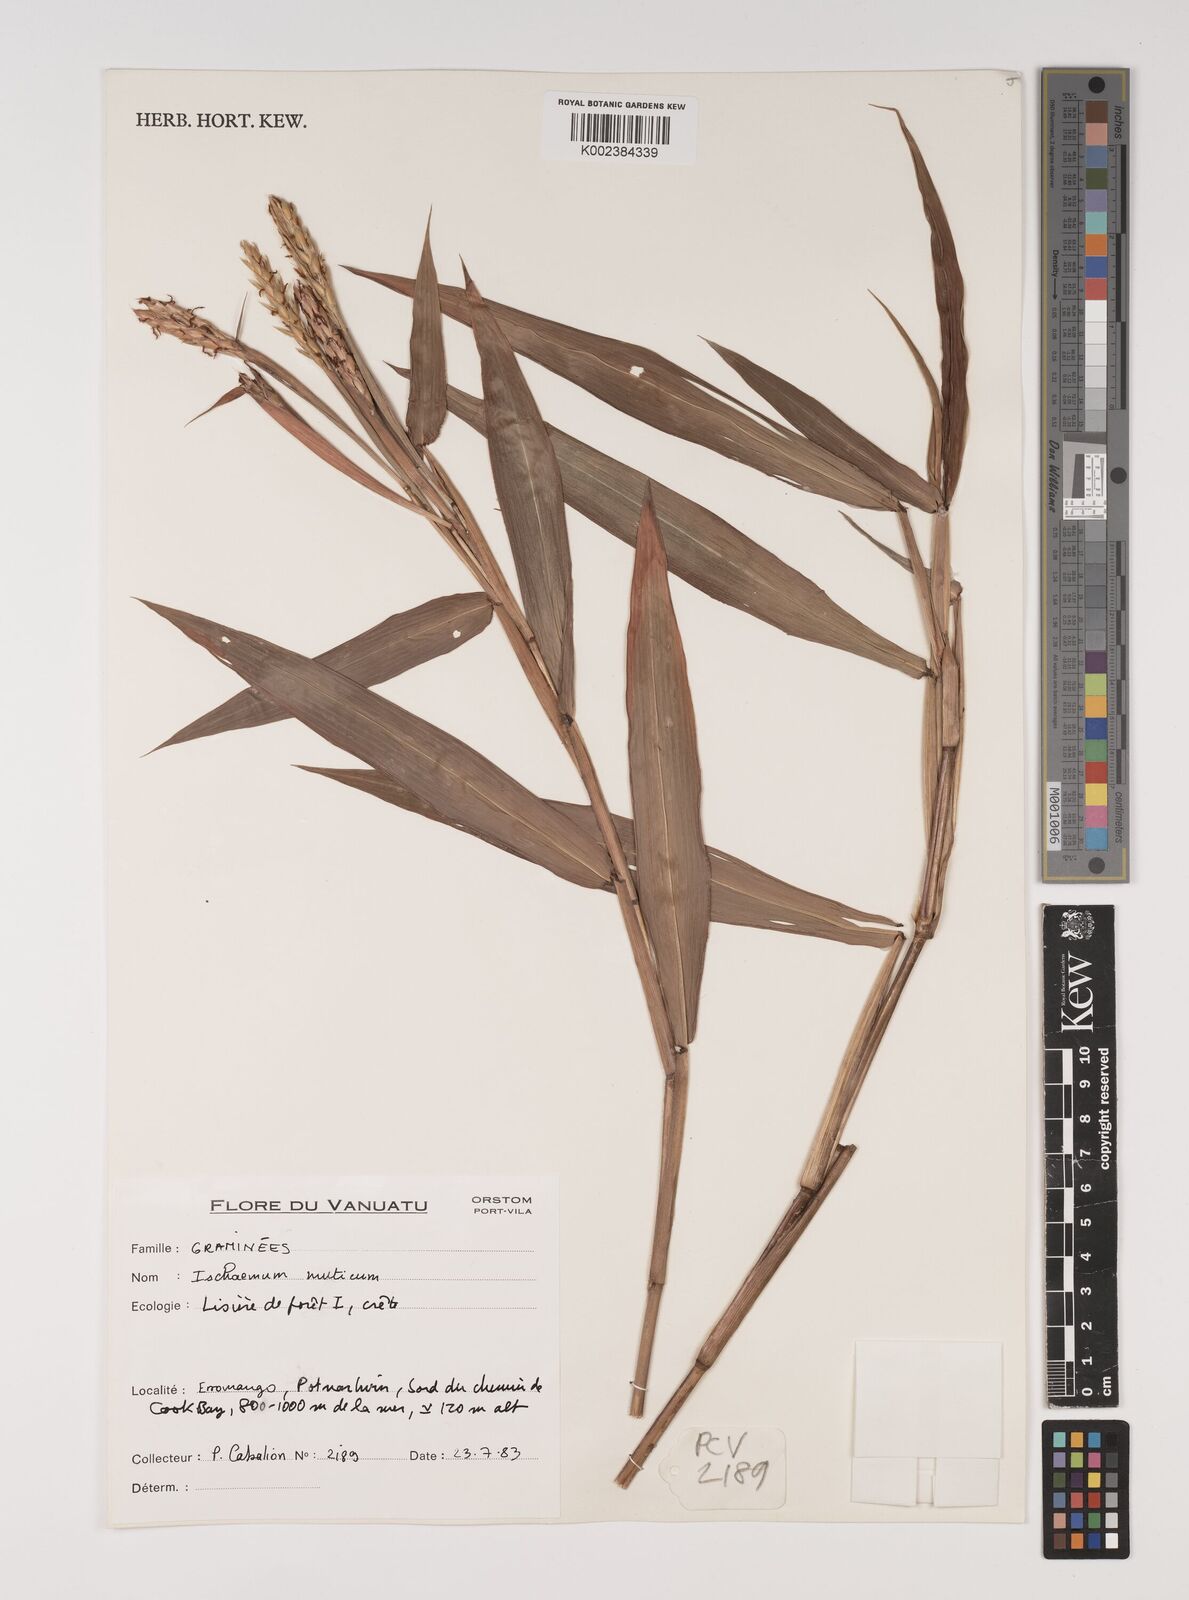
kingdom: Plantae
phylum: Tracheophyta
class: Liliopsida
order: Poales
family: Poaceae
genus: Ischaemum
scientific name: Ischaemum muticum
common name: Drought grass
